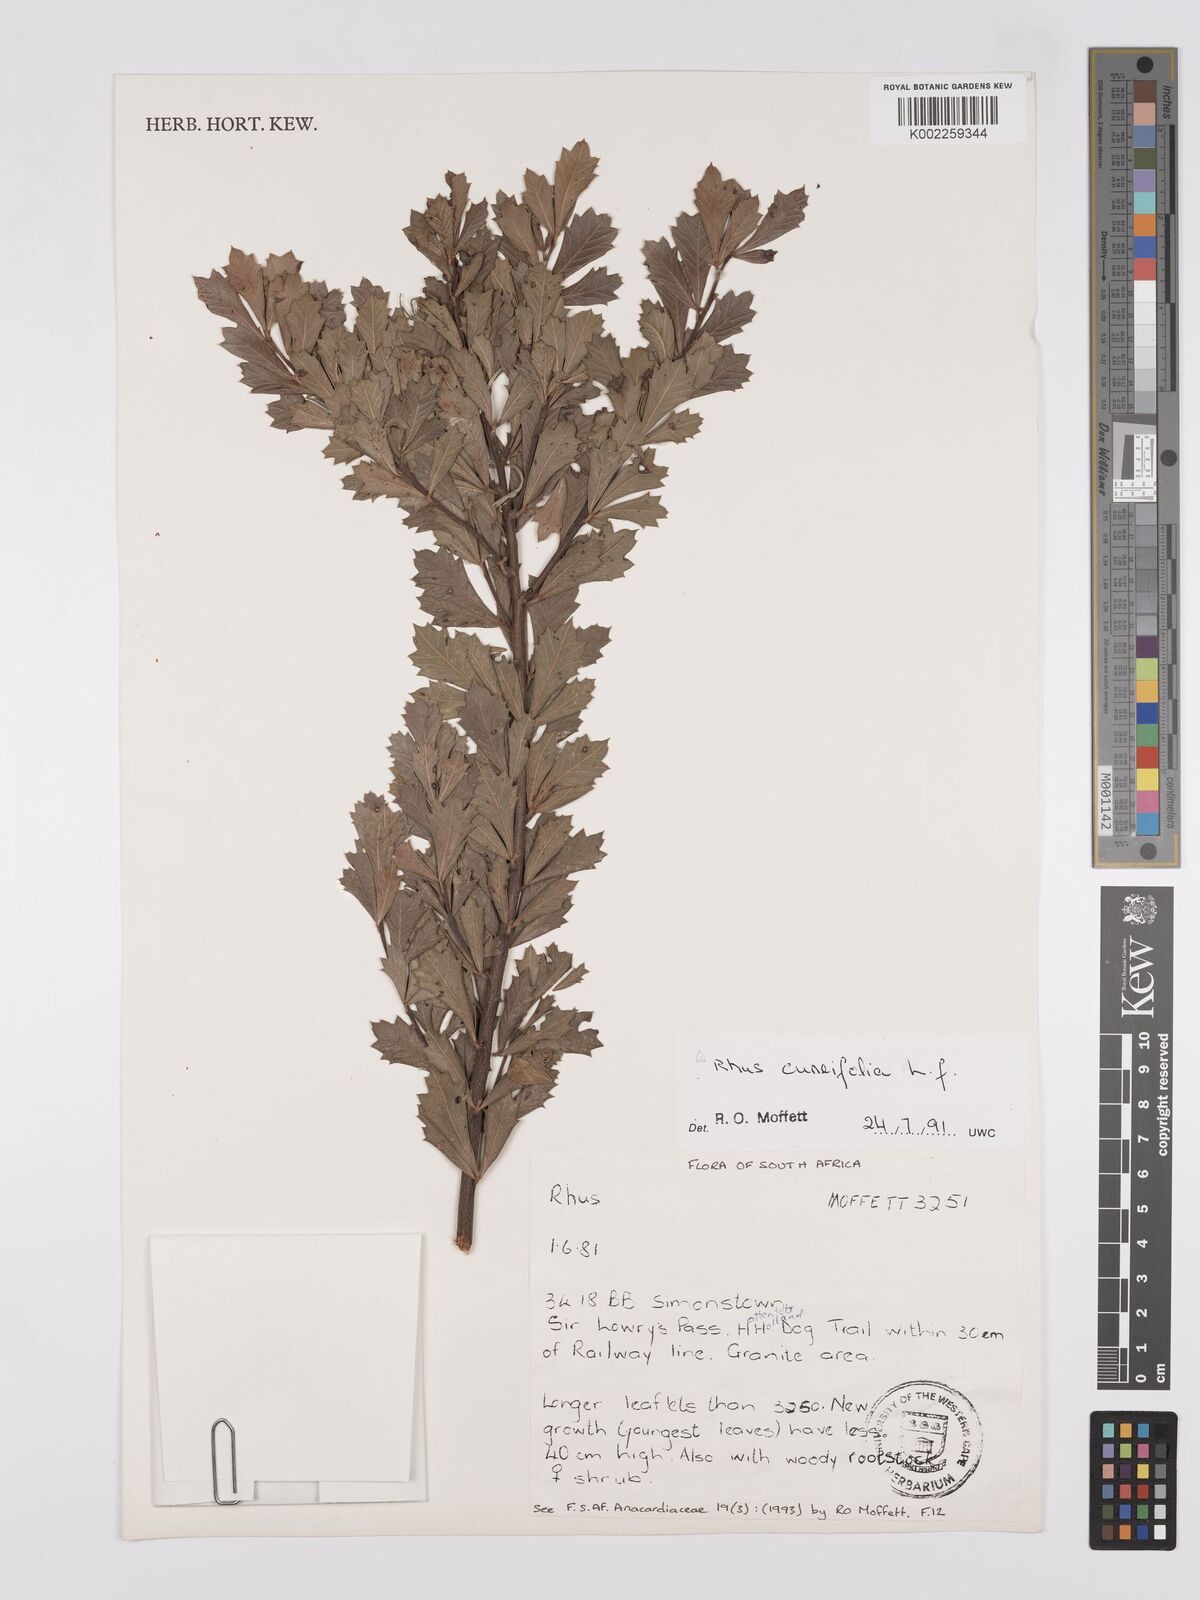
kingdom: Plantae
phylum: Tracheophyta
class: Magnoliopsida
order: Sapindales
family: Anacardiaceae
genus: Searsia
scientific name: Searsia cuneifolia
